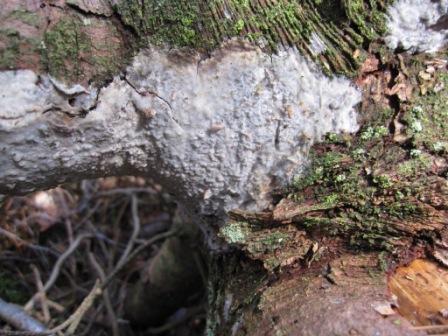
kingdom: Fungi
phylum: Basidiomycota
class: Agaricomycetes
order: Polyporales
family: Phanerochaetaceae
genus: Phlebiopsis
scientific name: Phlebiopsis gigantea
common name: kæmpebarksvamp
